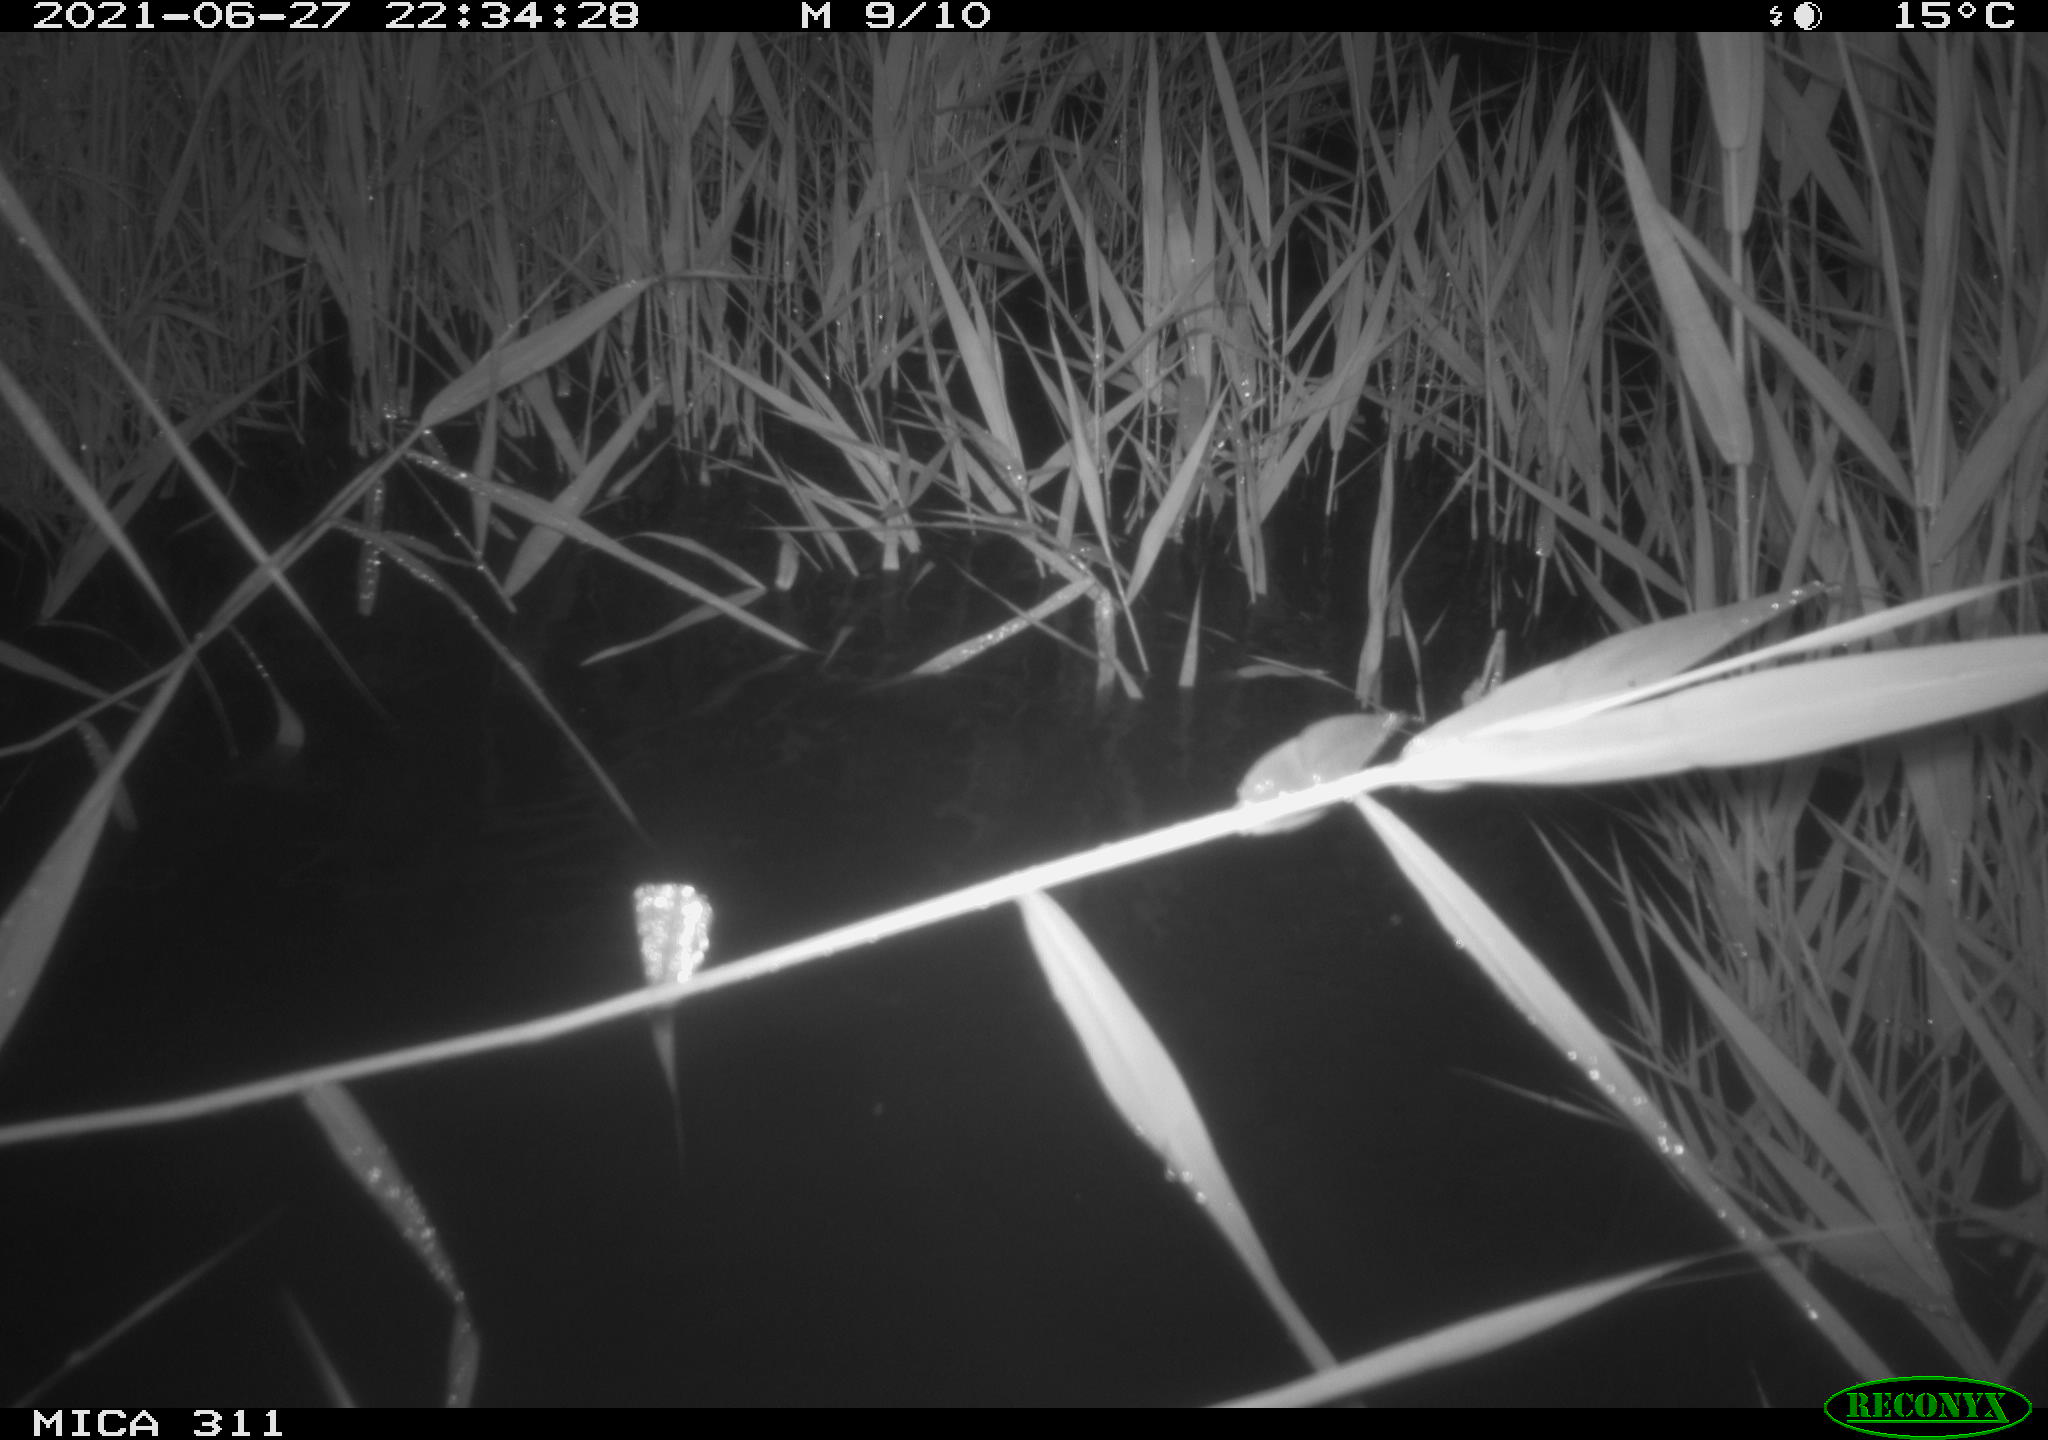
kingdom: Animalia
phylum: Chordata
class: Aves
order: Anseriformes
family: Anatidae
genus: Anas
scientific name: Anas platyrhynchos
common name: Mallard
